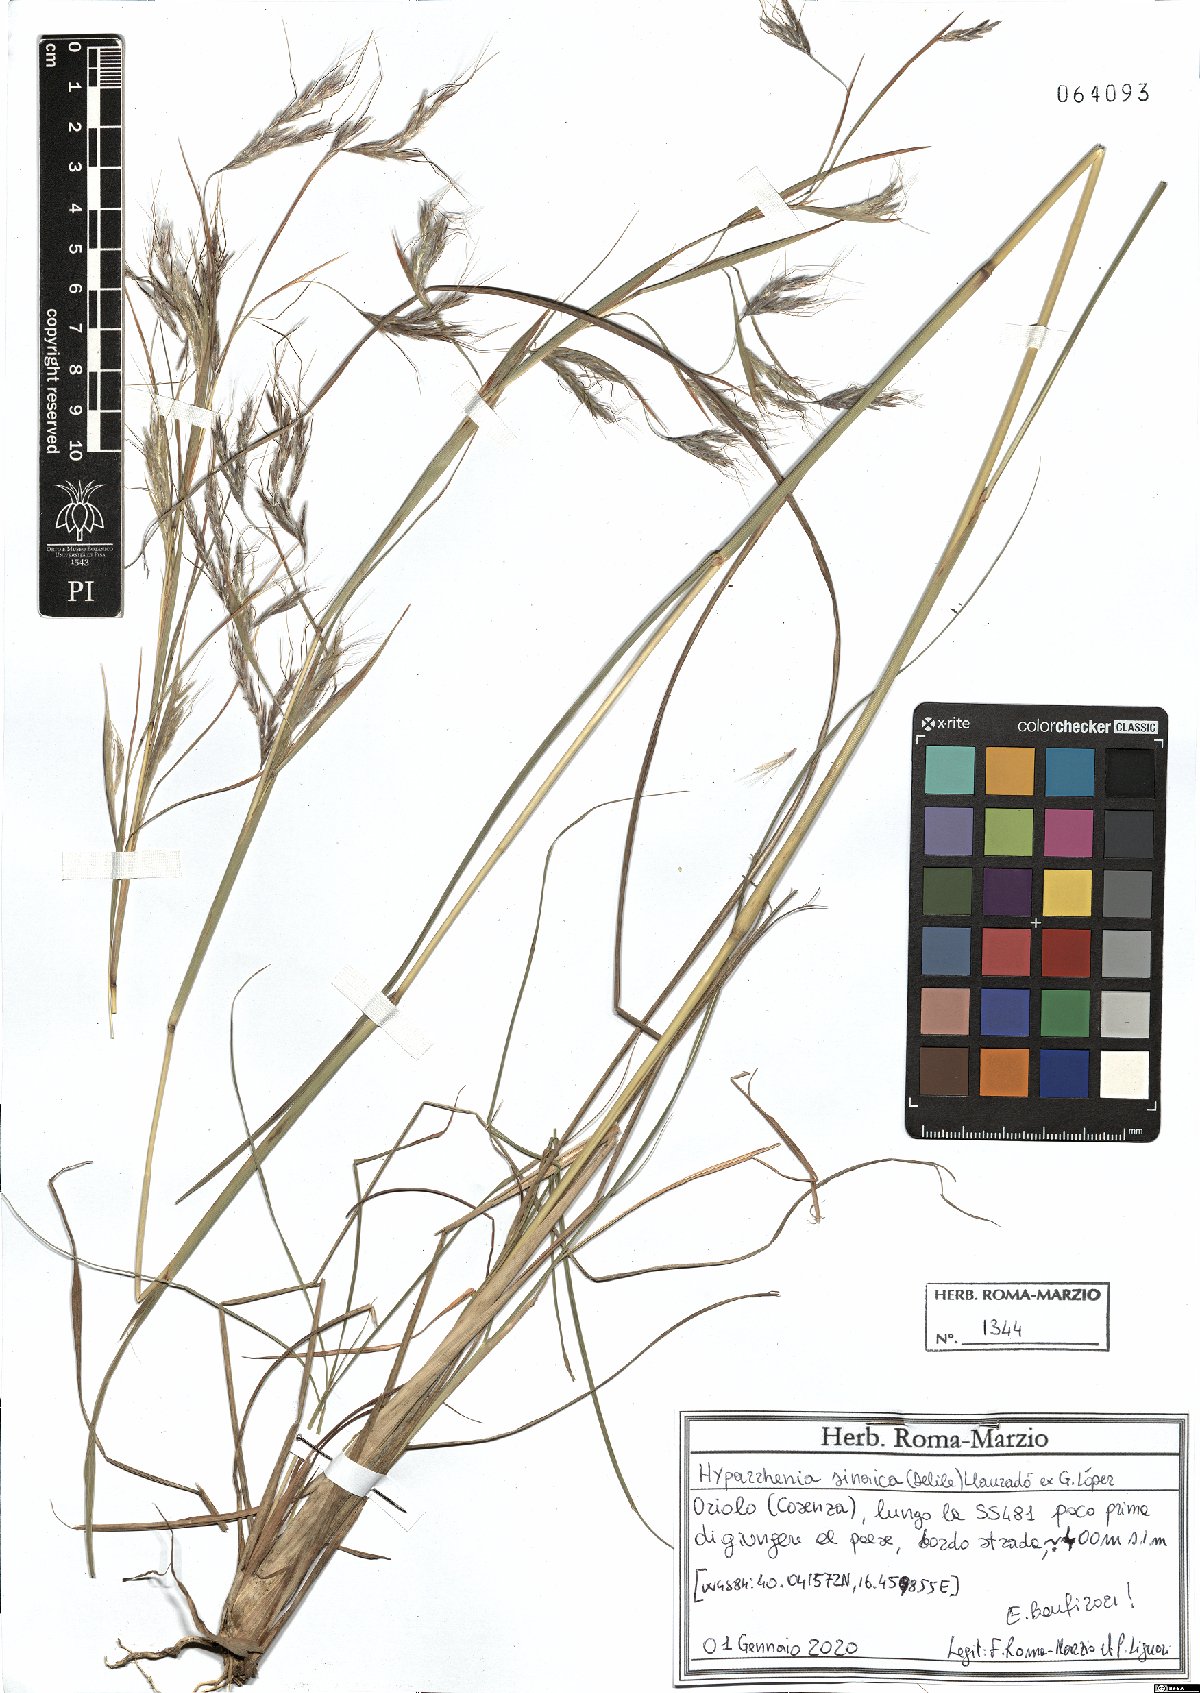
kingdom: Plantae
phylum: Tracheophyta
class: Liliopsida
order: Poales
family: Poaceae
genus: Hyparrhenia
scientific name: Hyparrhenia hirta
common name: Thatching grass
